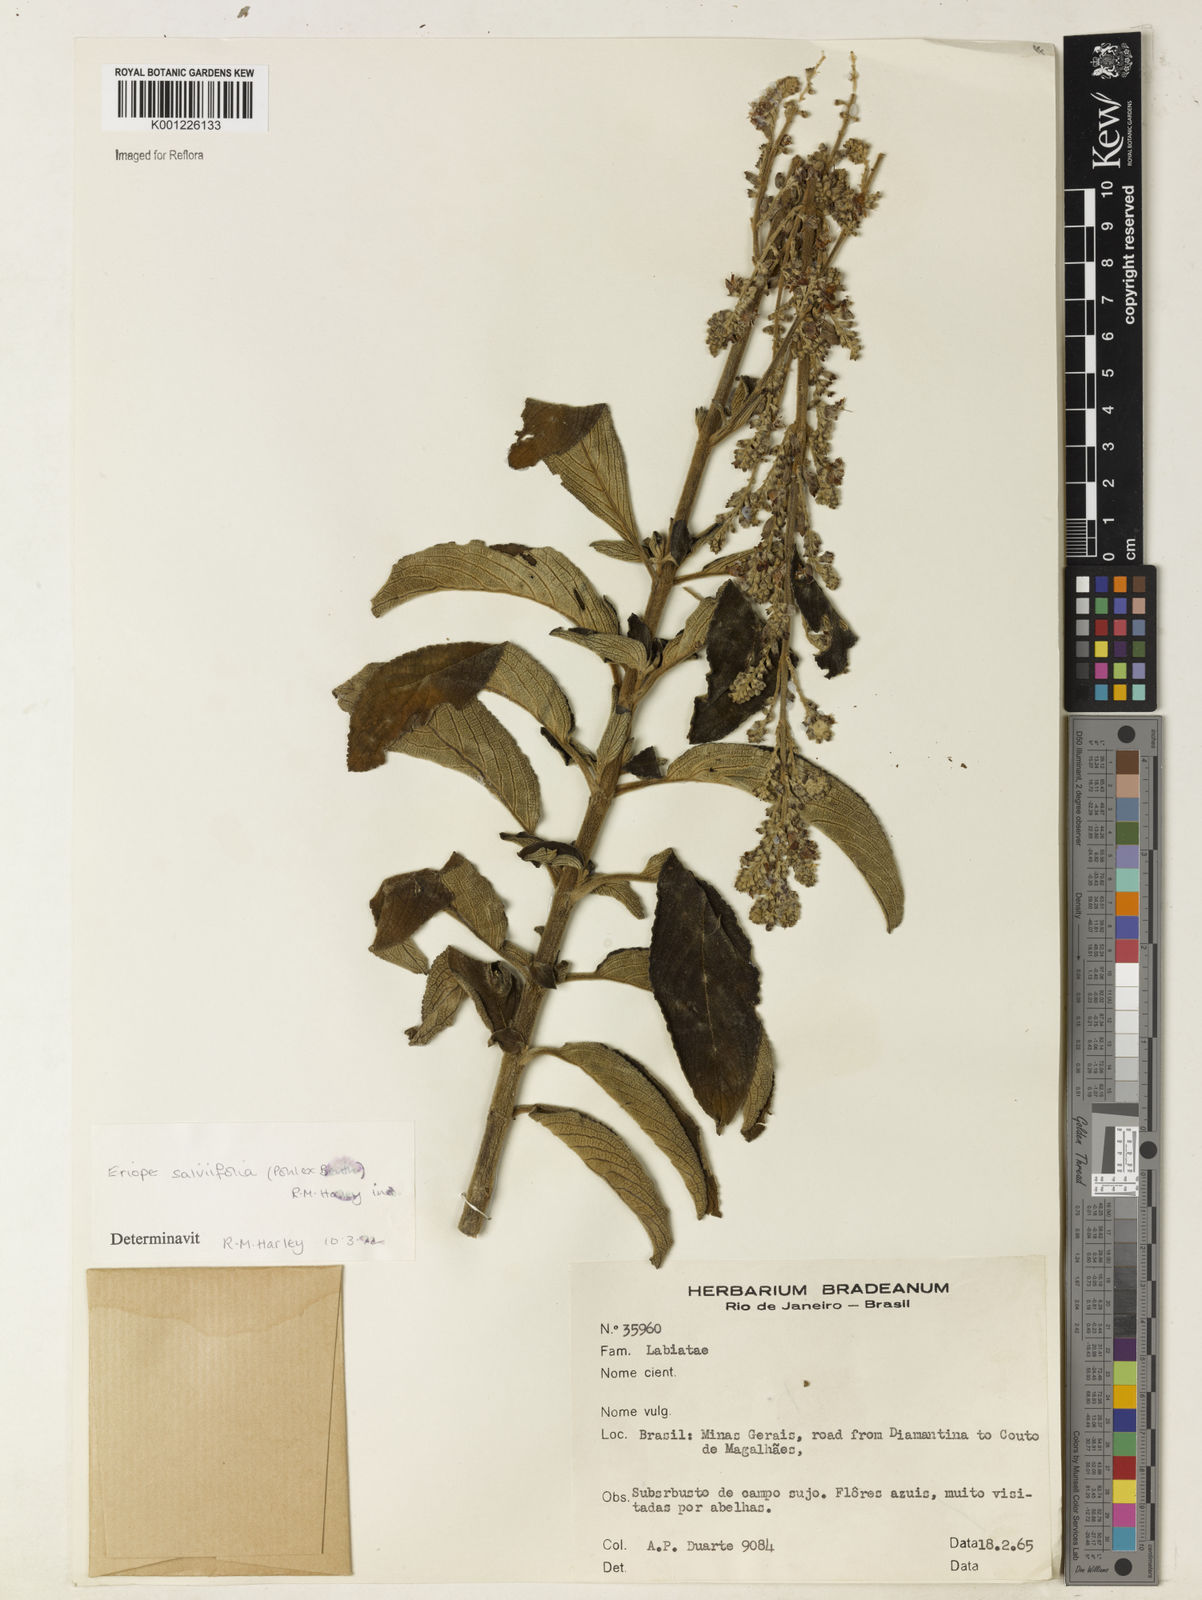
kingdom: Plantae
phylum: Tracheophyta
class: Magnoliopsida
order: Lamiales
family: Lamiaceae
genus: Eriope
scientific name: Eriope salviifolia
